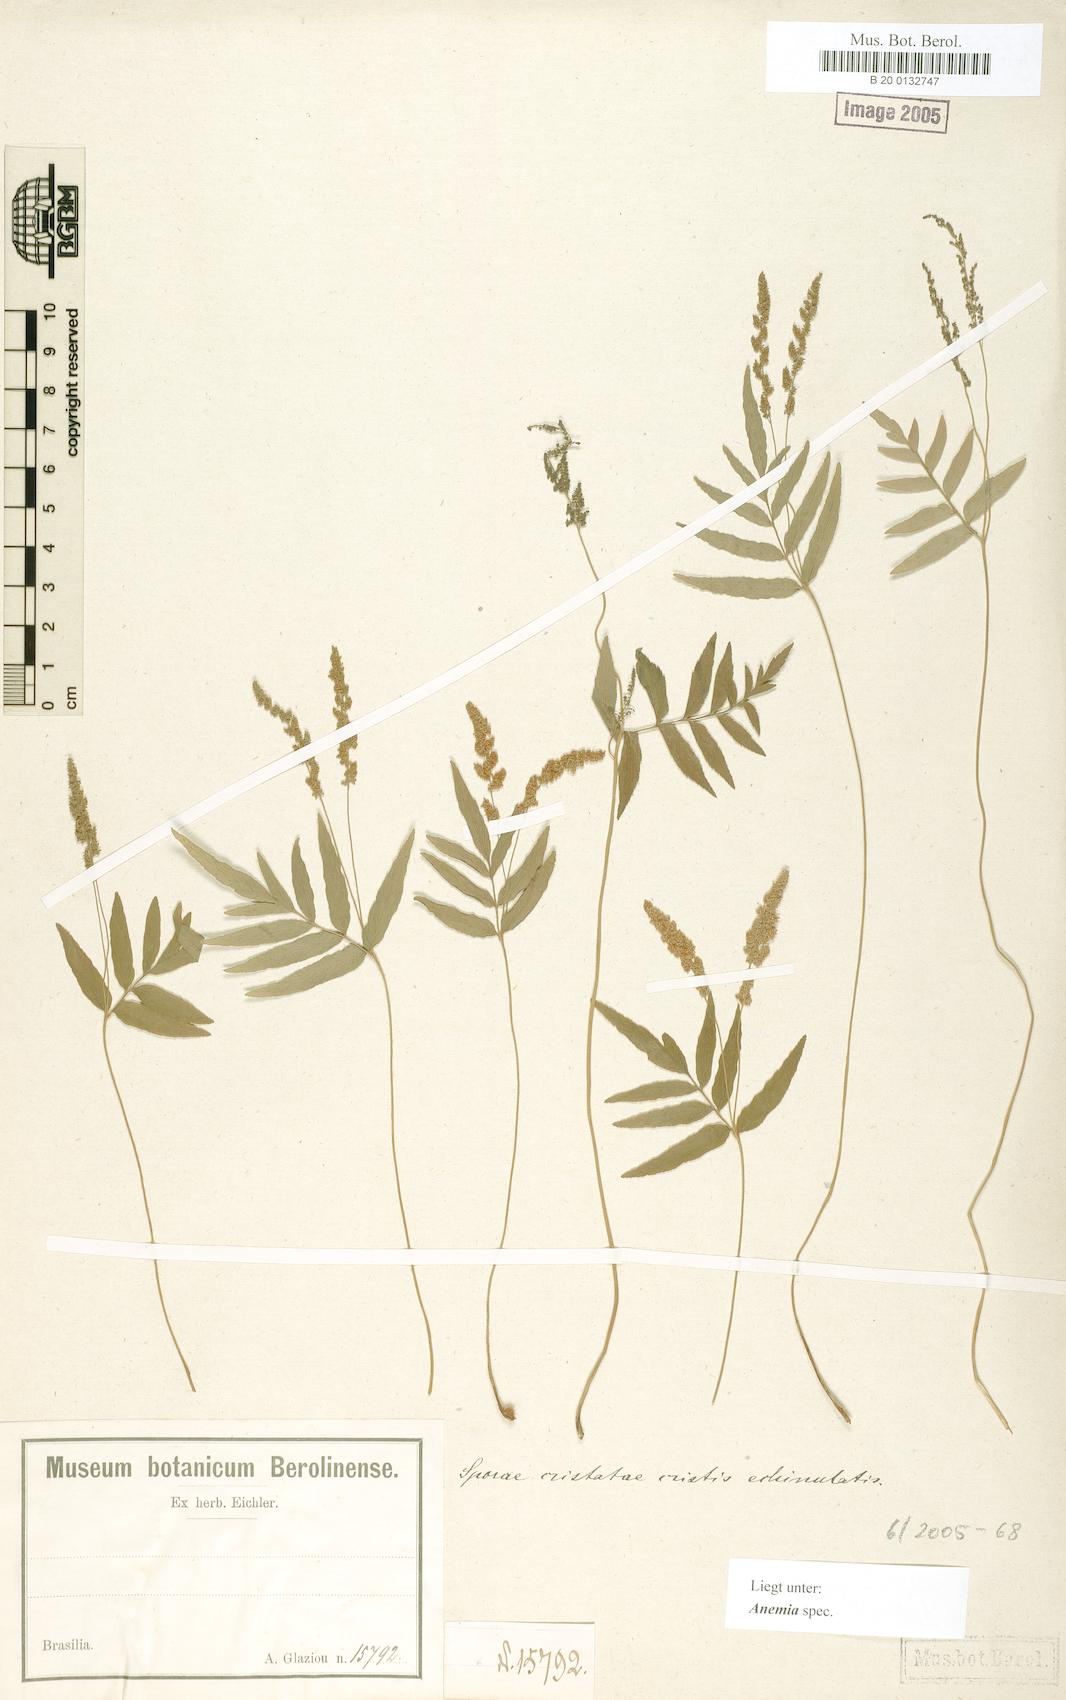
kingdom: Plantae
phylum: Tracheophyta
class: Polypodiopsida
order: Schizaeales
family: Anemiaceae
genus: Anemia
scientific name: Anemia
